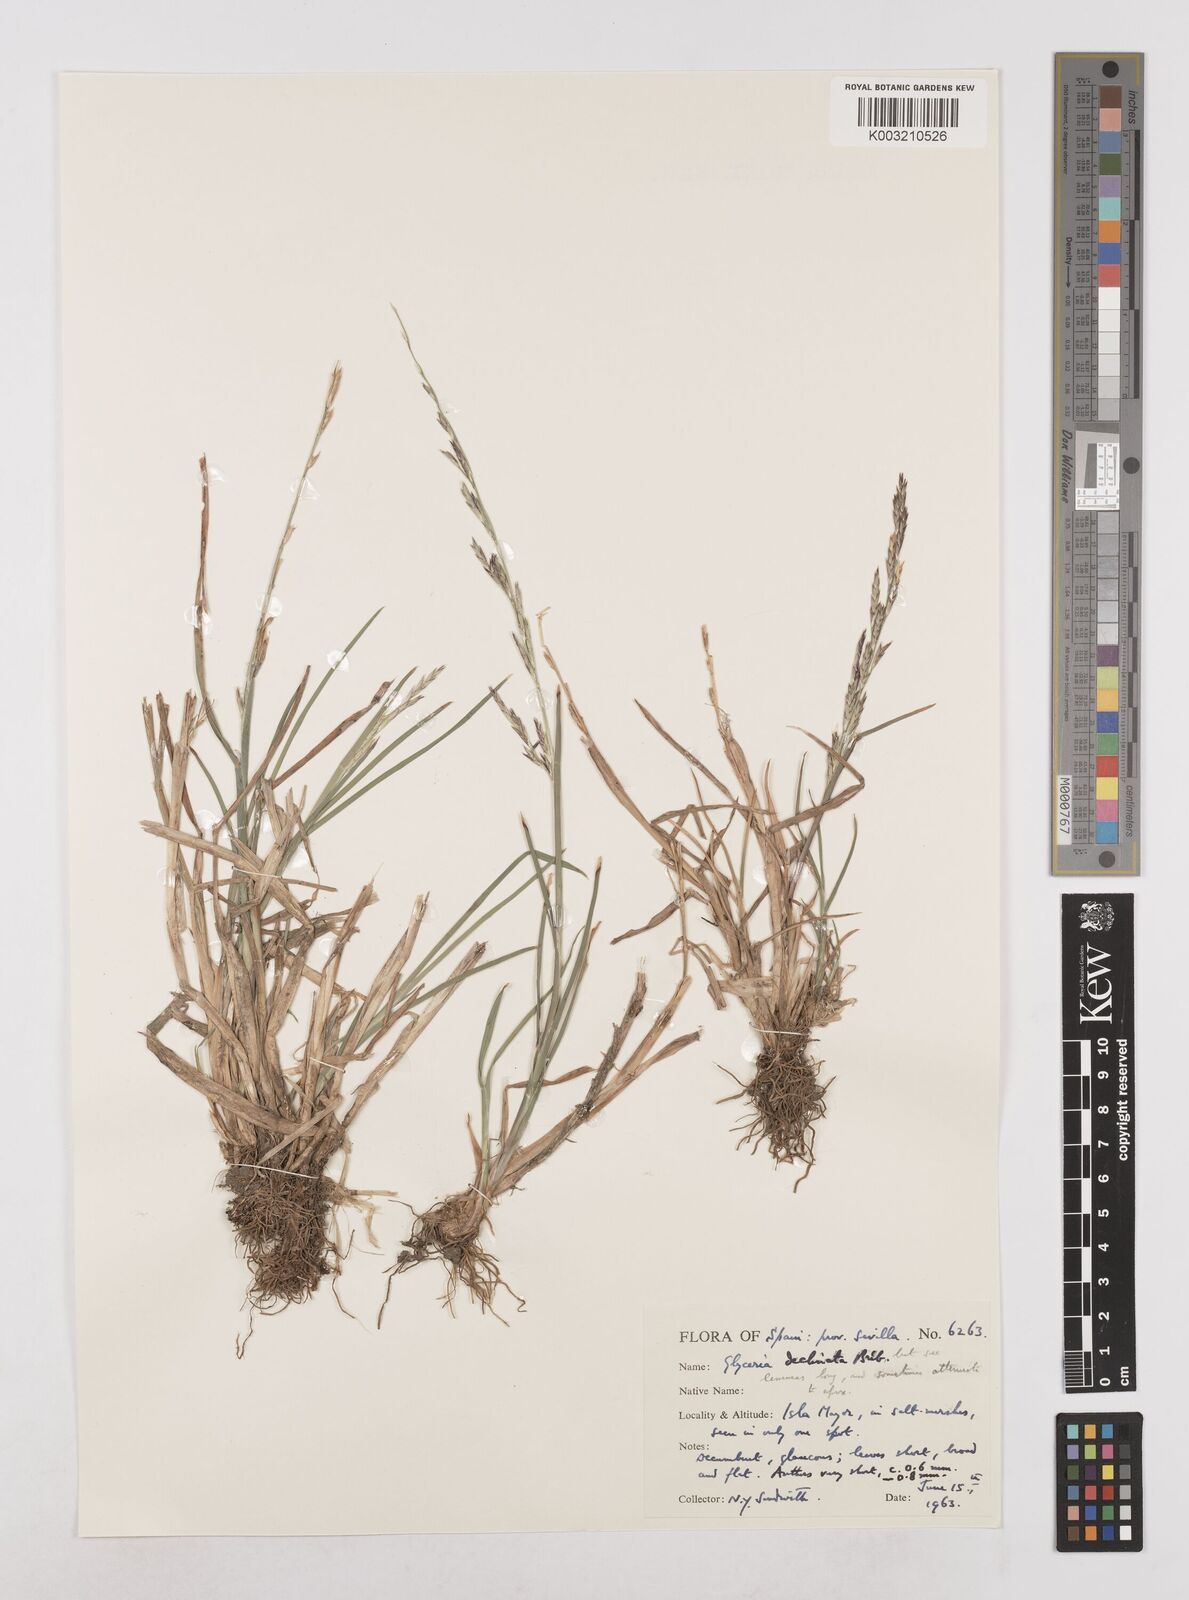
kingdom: Plantae
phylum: Tracheophyta
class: Liliopsida
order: Poales
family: Poaceae
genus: Glyceria
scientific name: Glyceria declinata
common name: Small sweet-grass
